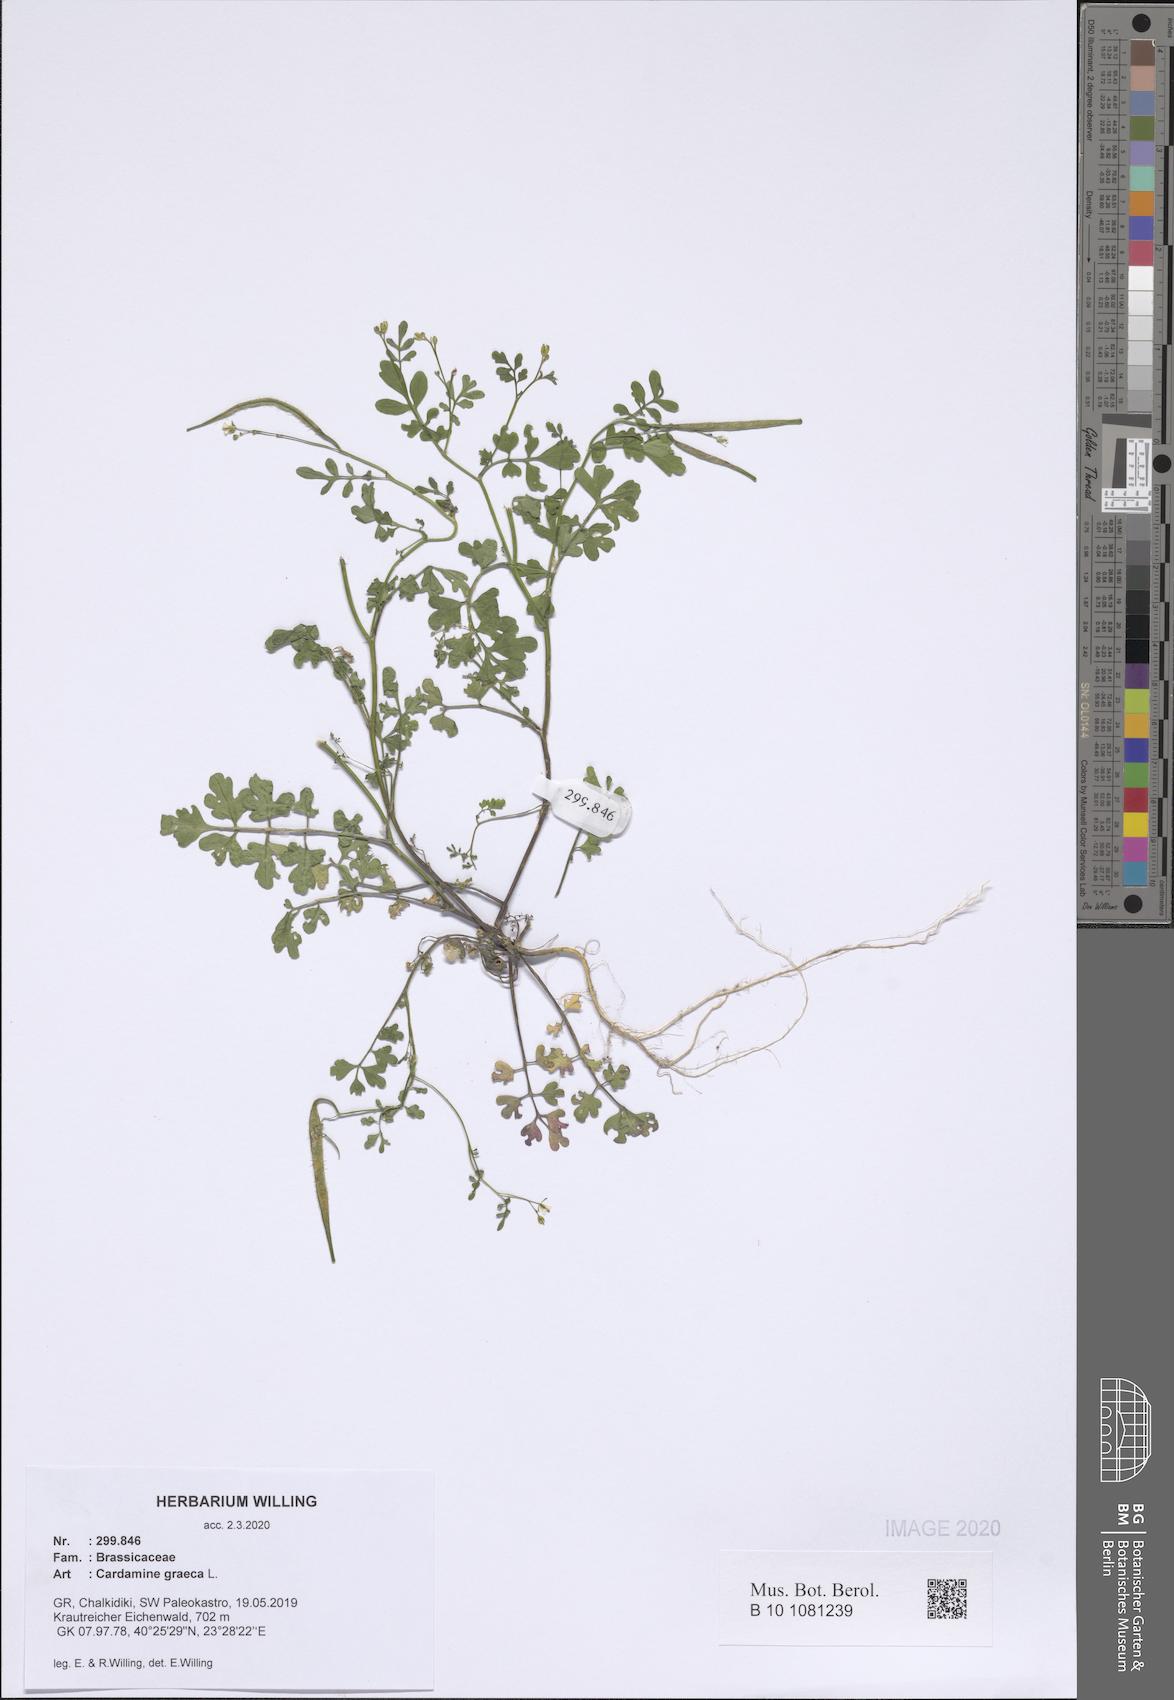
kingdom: Plantae
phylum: Tracheophyta
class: Magnoliopsida
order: Brassicales
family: Brassicaceae
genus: Cardamine
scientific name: Cardamine graeca
